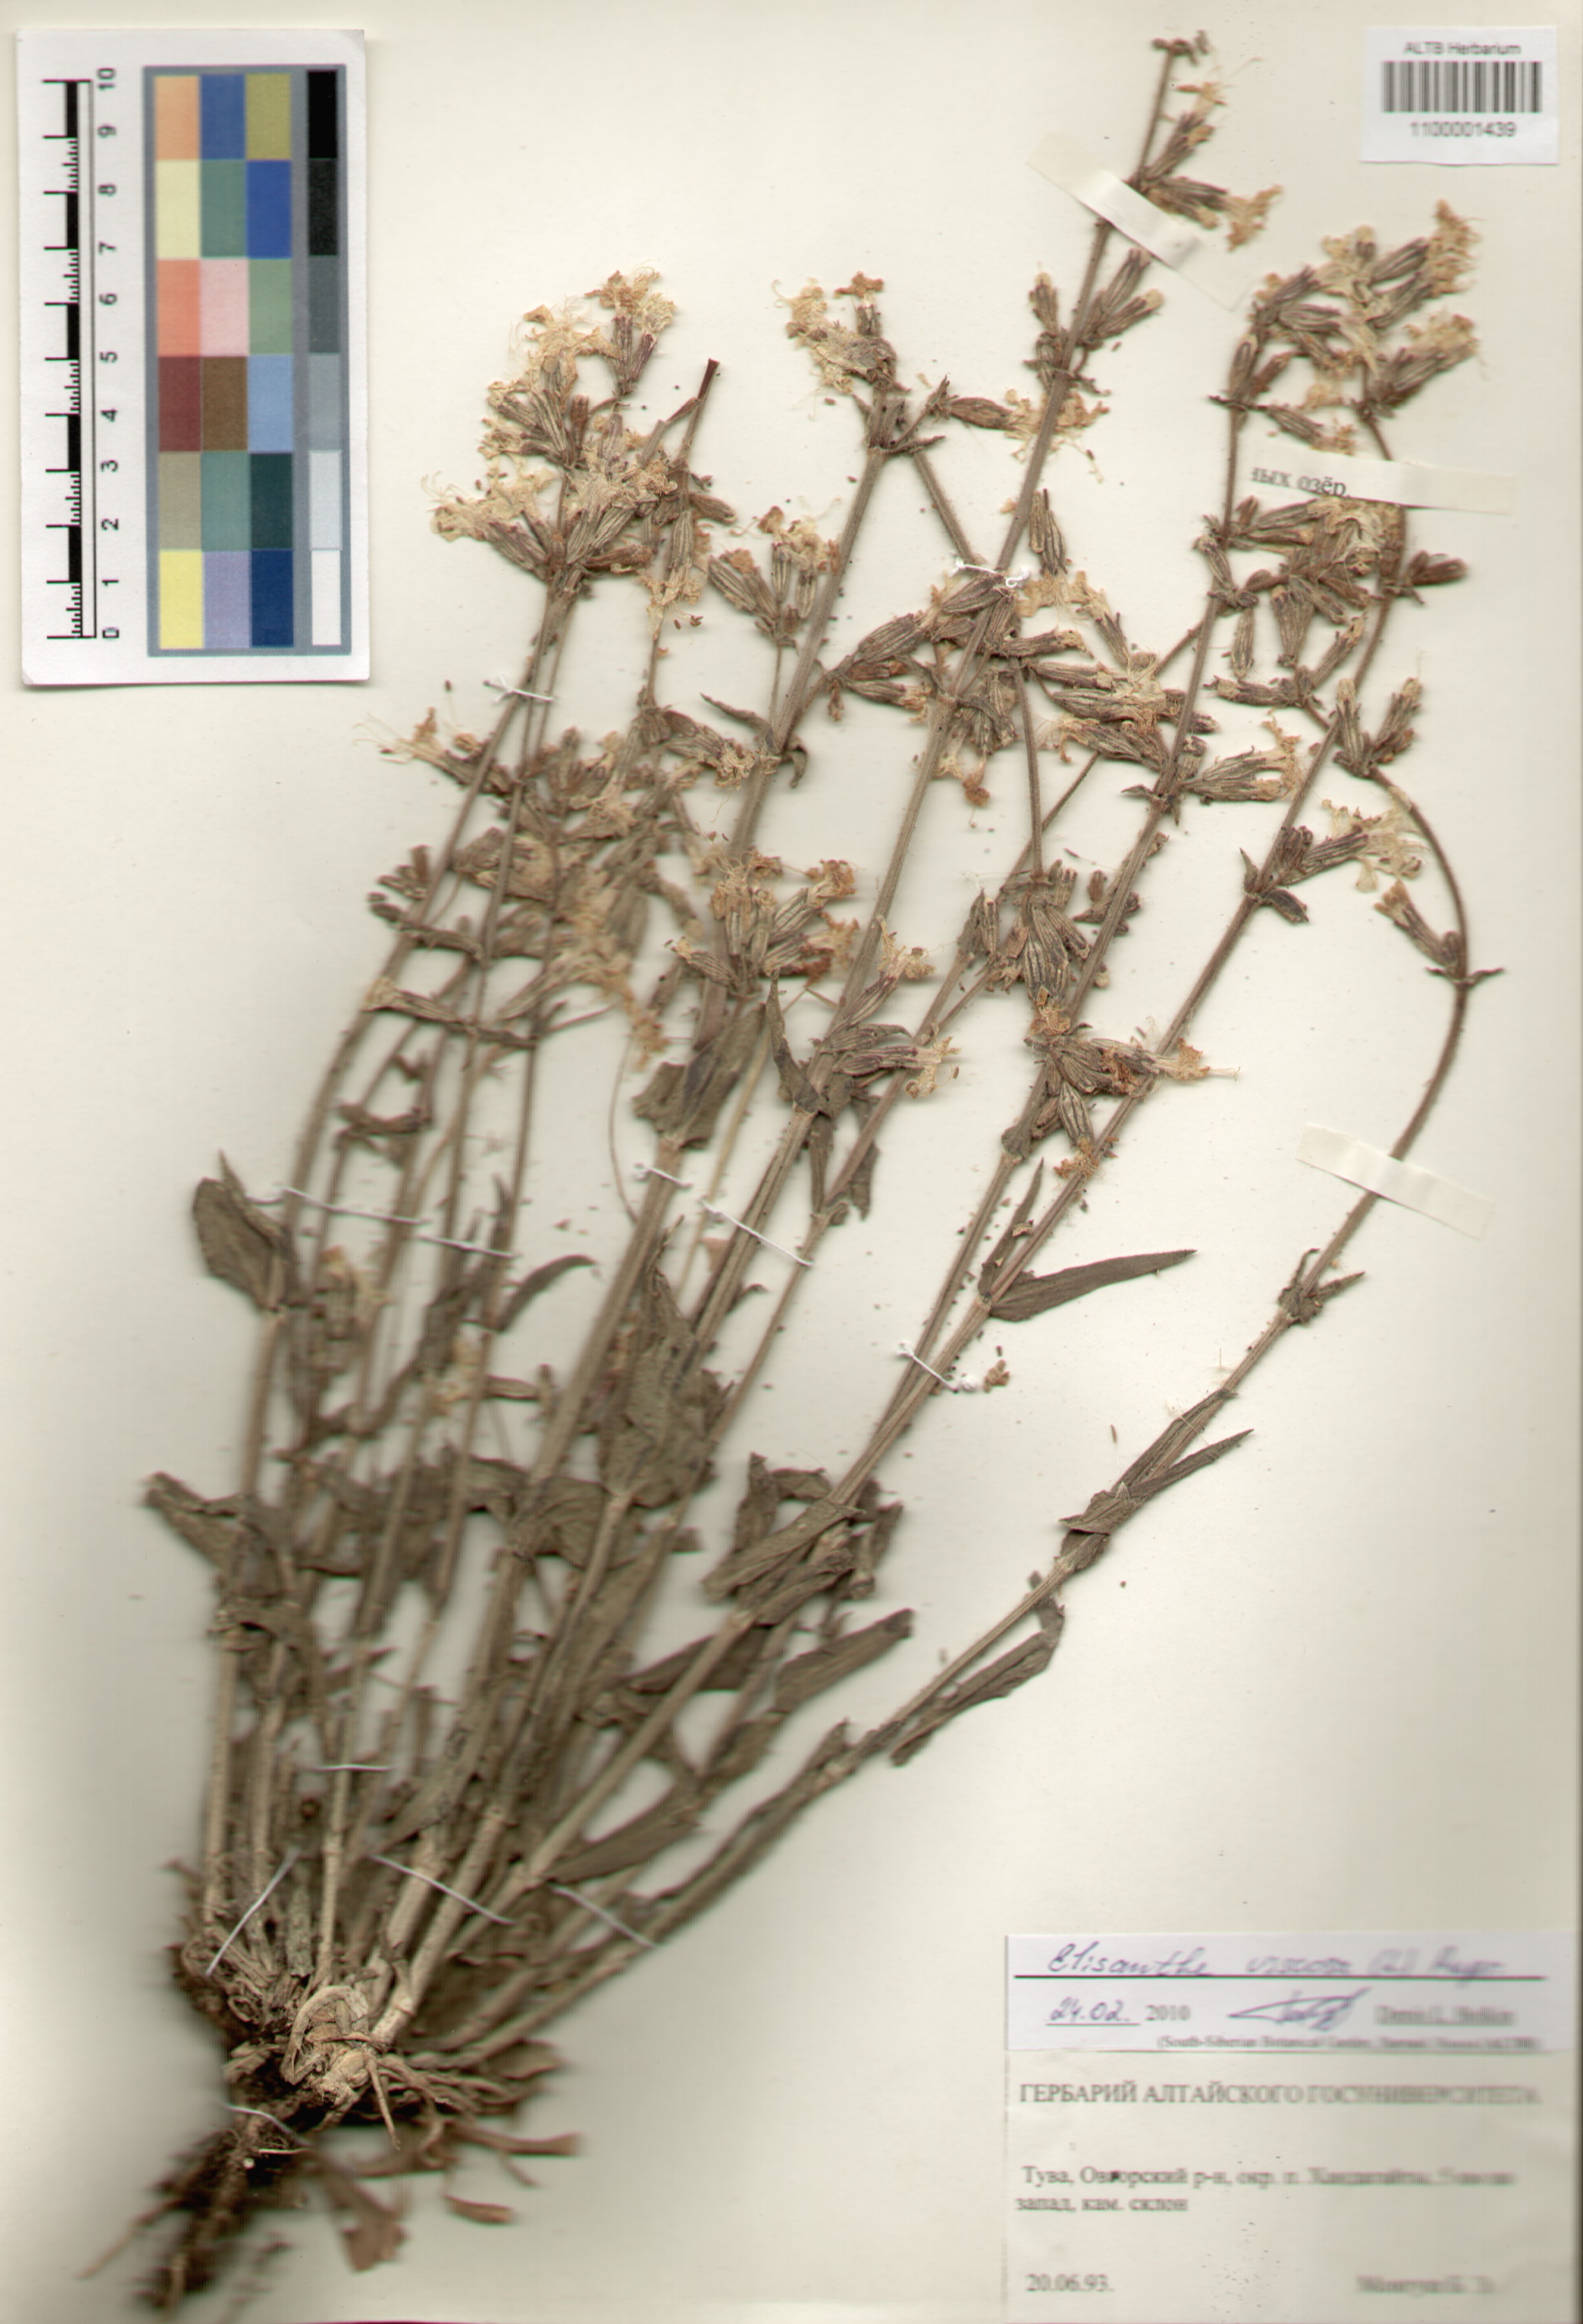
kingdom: Plantae
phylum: Tracheophyta
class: Magnoliopsida
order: Caryophyllales
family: Caryophyllaceae
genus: Silene
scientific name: Silene viscosa
